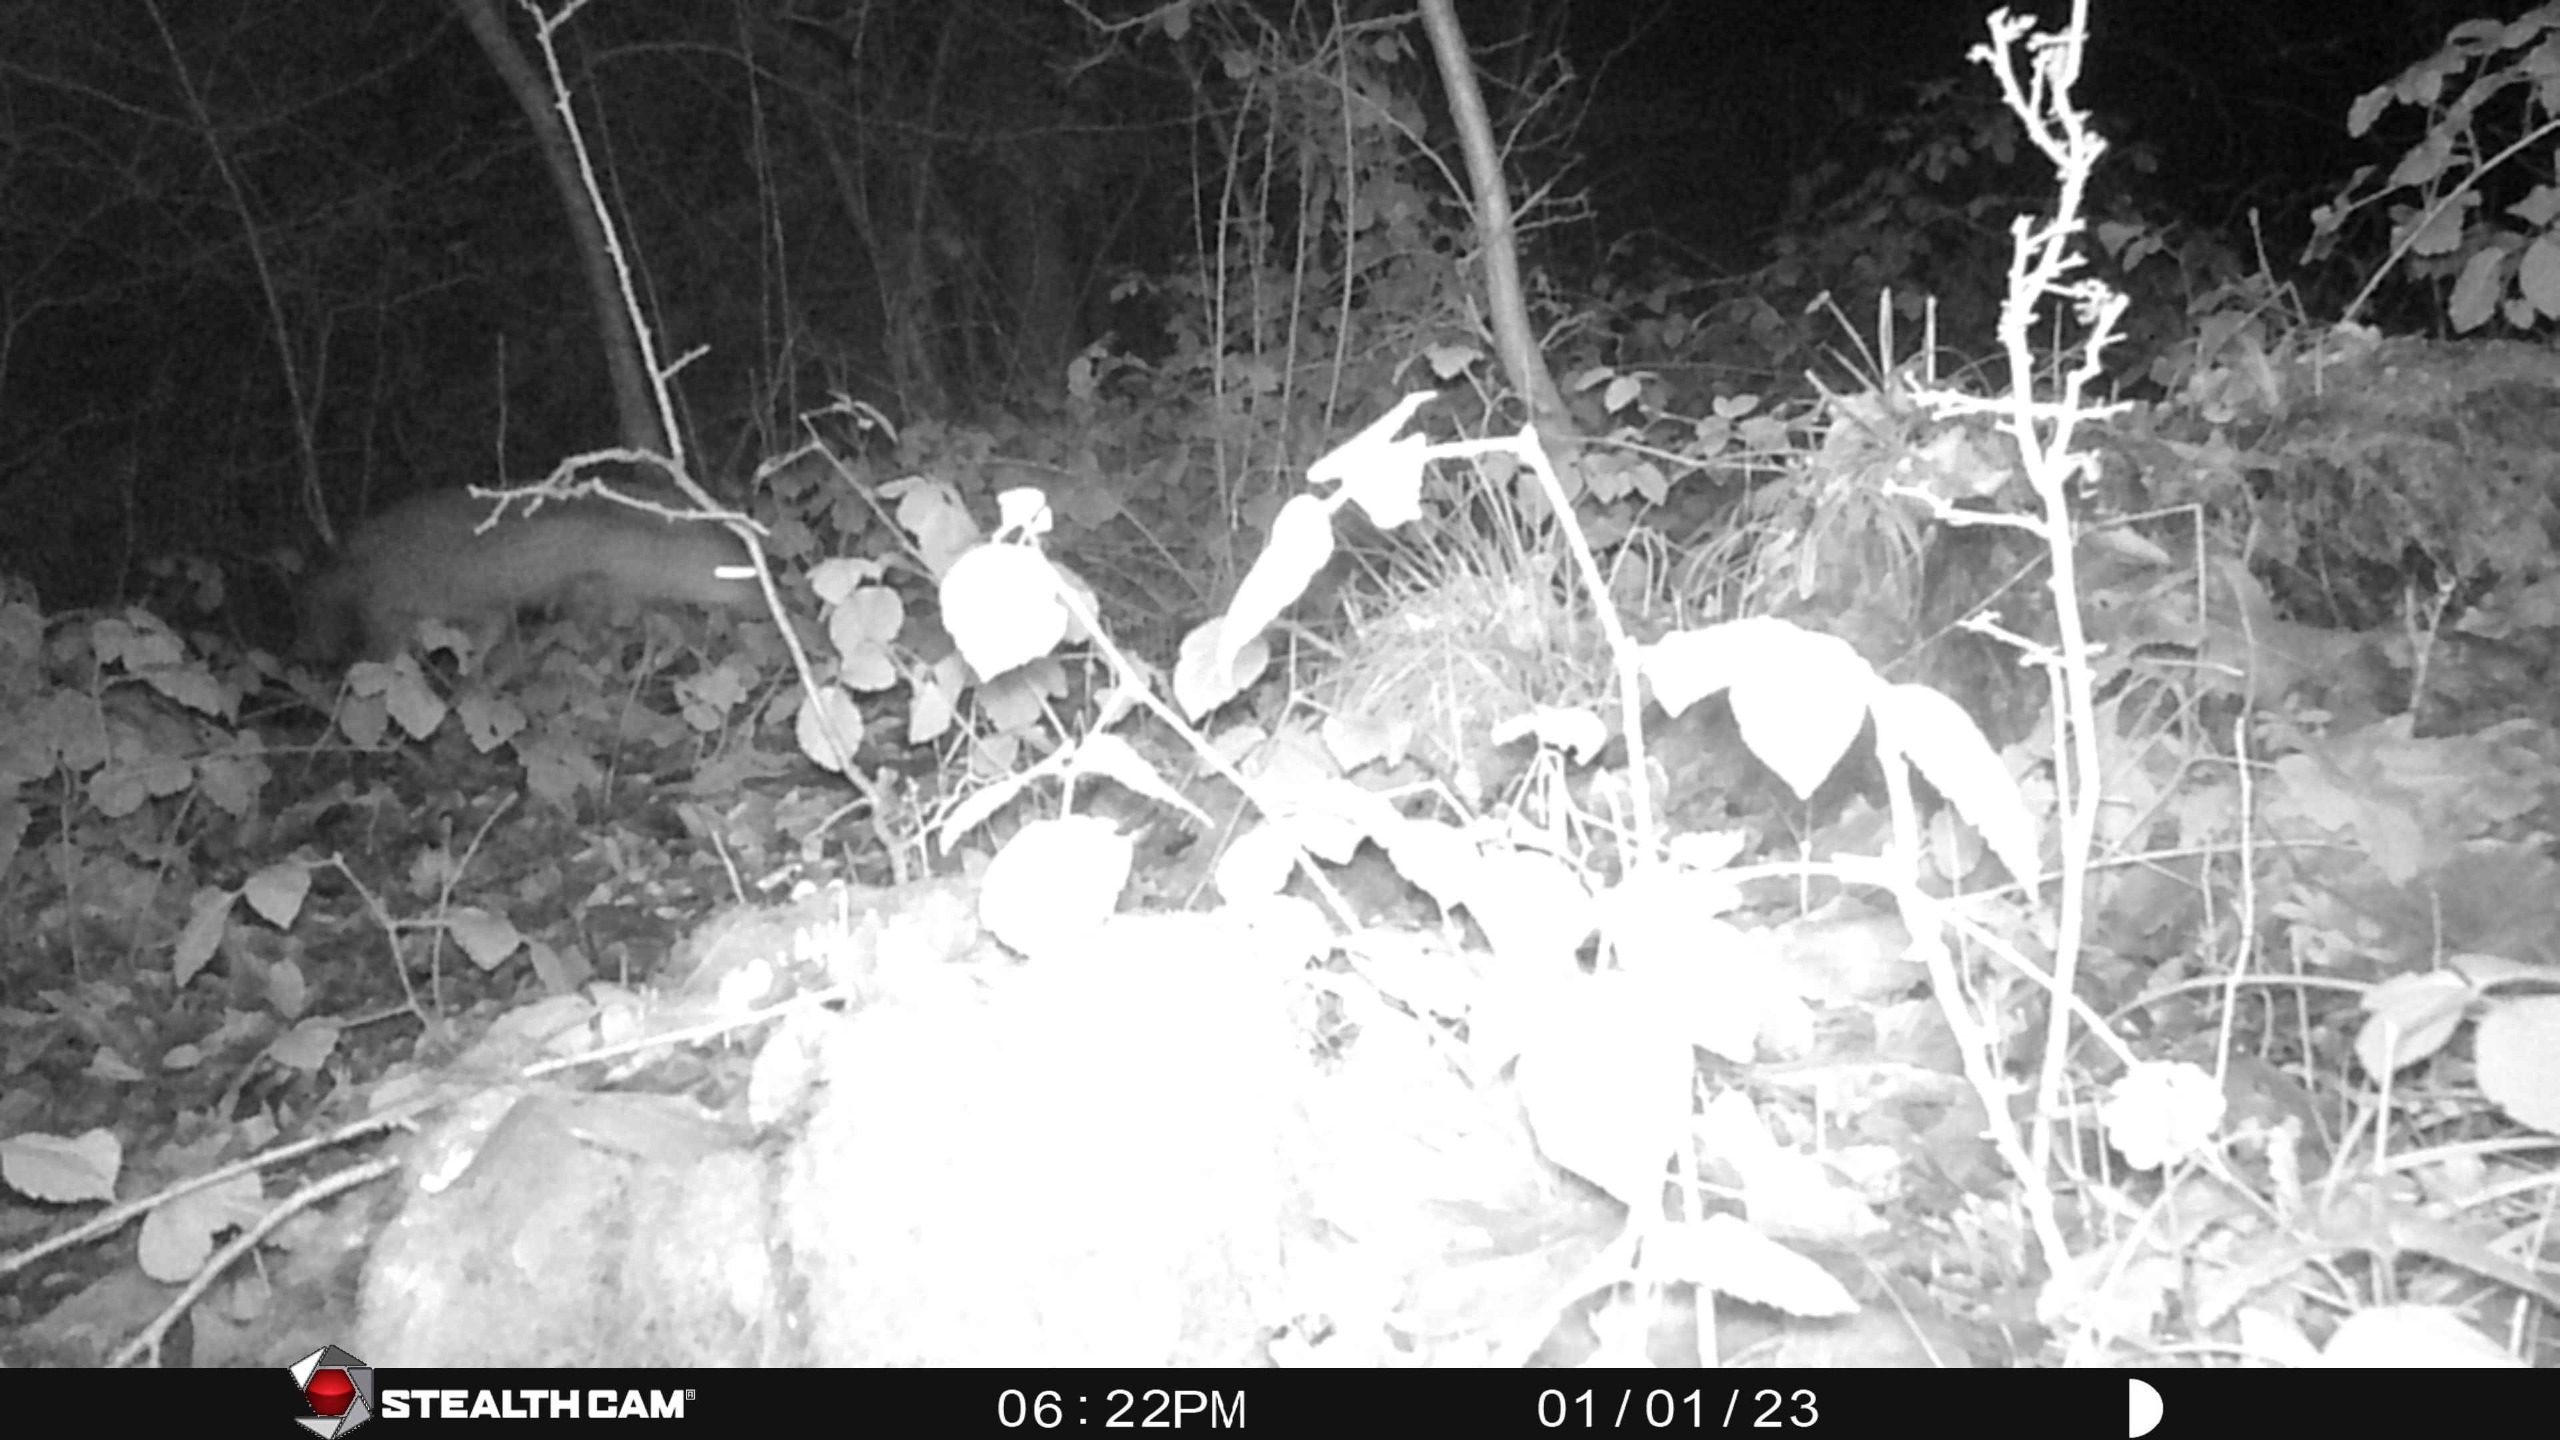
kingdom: Animalia
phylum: Chordata
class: Mammalia
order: Carnivora
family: Canidae
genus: Vulpes
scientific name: Vulpes vulpes
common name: Ræv
